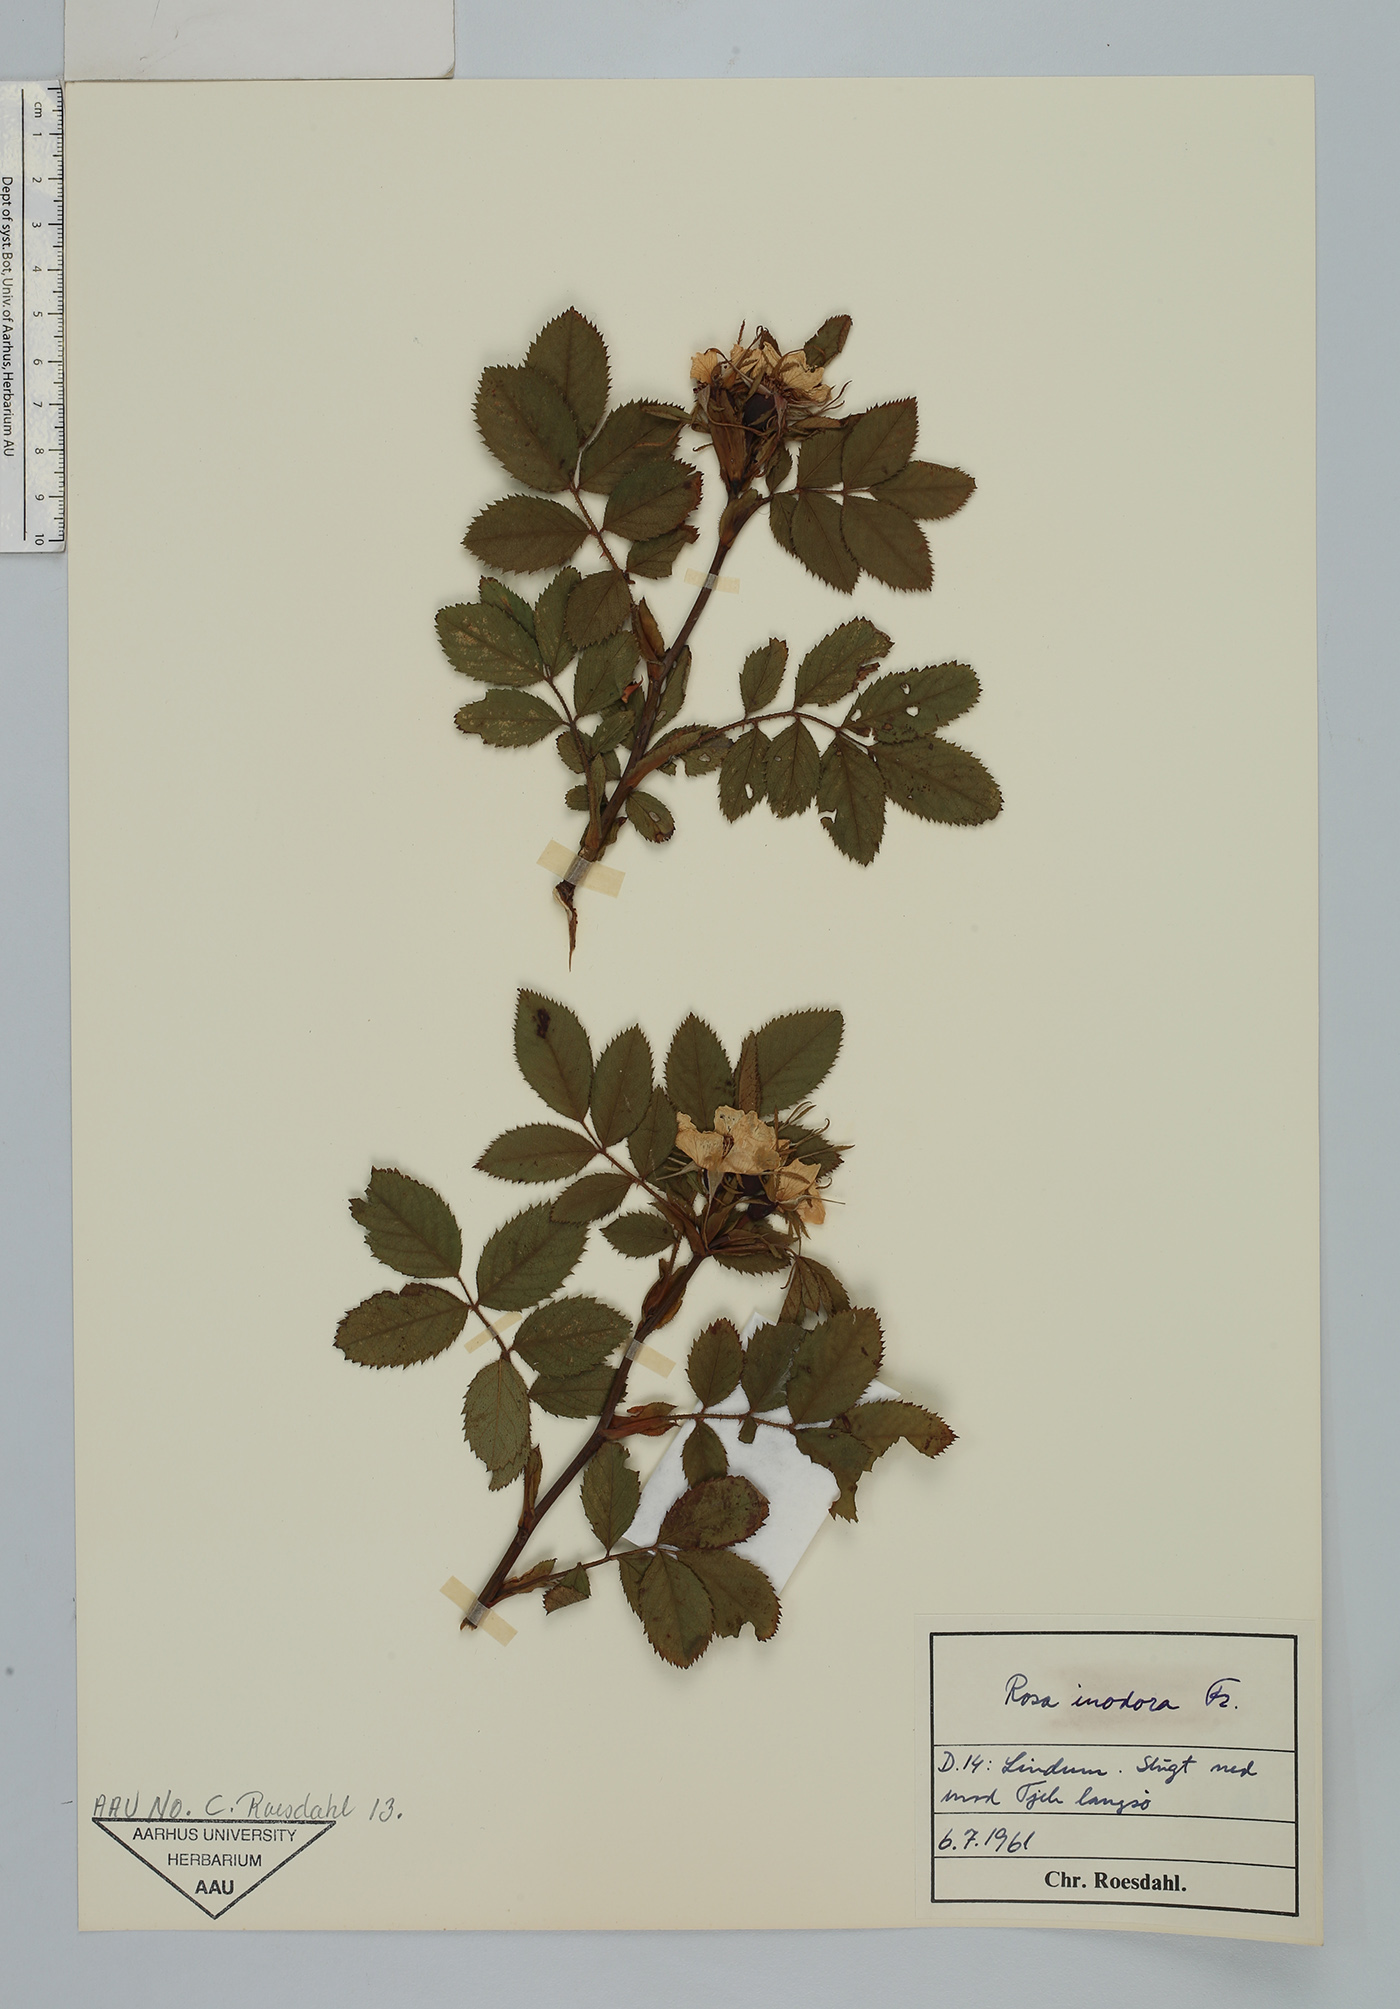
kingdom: Plantae
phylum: Tracheophyta
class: Magnoliopsida
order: Rosales
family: Rosaceae
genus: Rosa
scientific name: Rosa inodora
